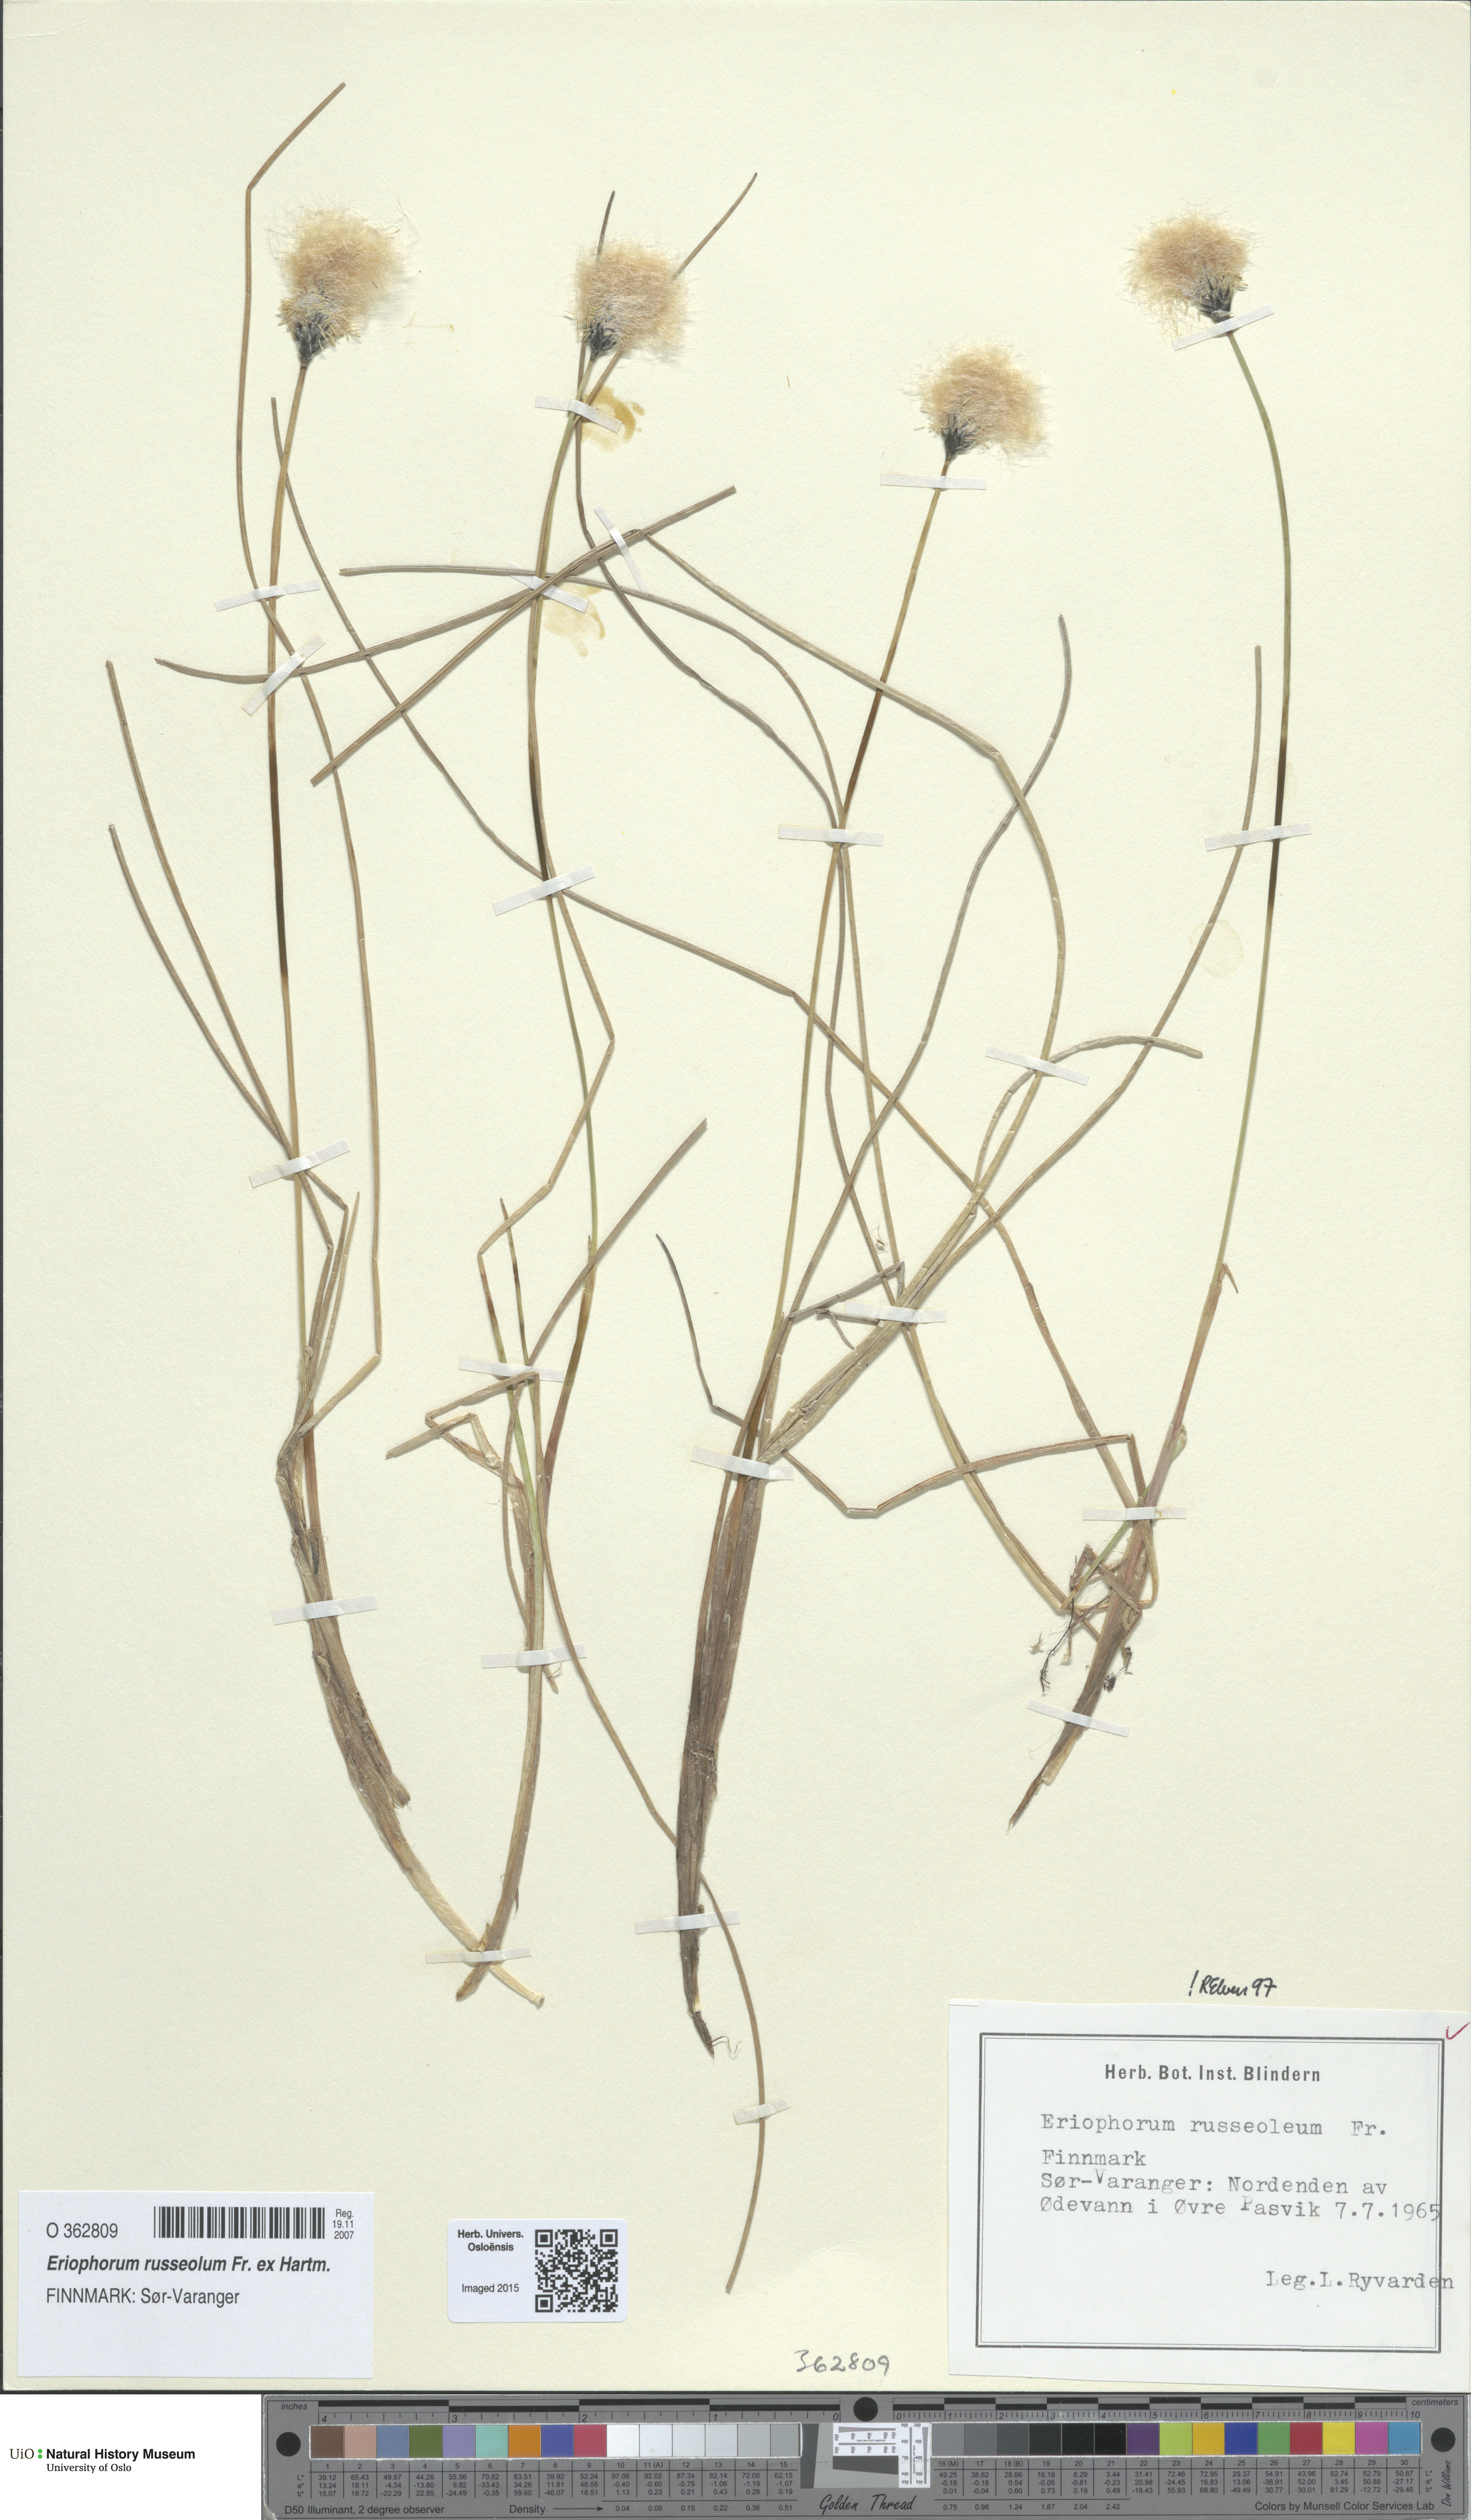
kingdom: Plantae
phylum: Tracheophyta
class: Liliopsida
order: Poales
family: Cyperaceae
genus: Eriophorum
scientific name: Eriophorum russeolum
